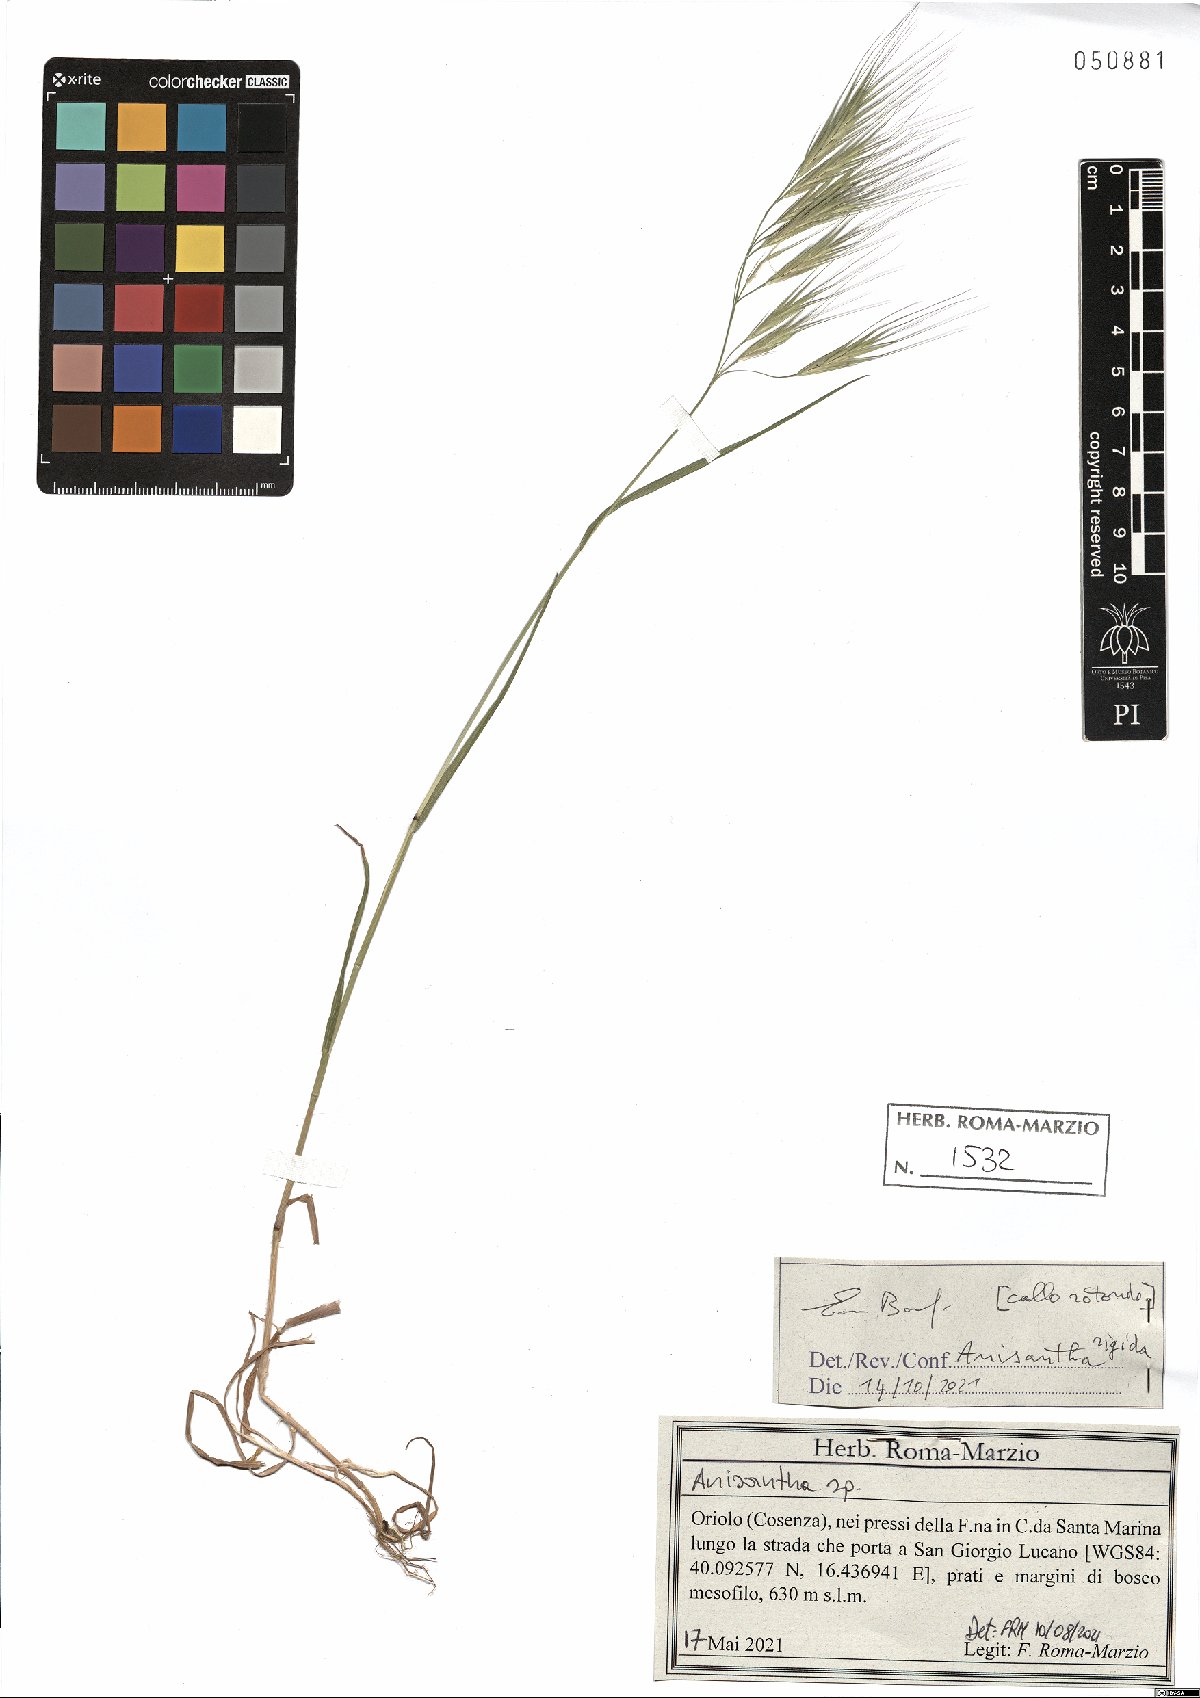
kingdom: Plantae
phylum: Tracheophyta
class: Liliopsida
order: Poales
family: Poaceae
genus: Bromus
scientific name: Bromus rigidus
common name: Ripgut brome
